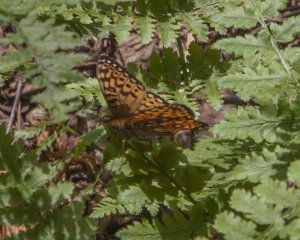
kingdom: Animalia
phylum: Arthropoda
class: Insecta
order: Lepidoptera
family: Nymphalidae
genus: Speyeria
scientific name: Speyeria atlantis
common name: Atlantis Fritillary
